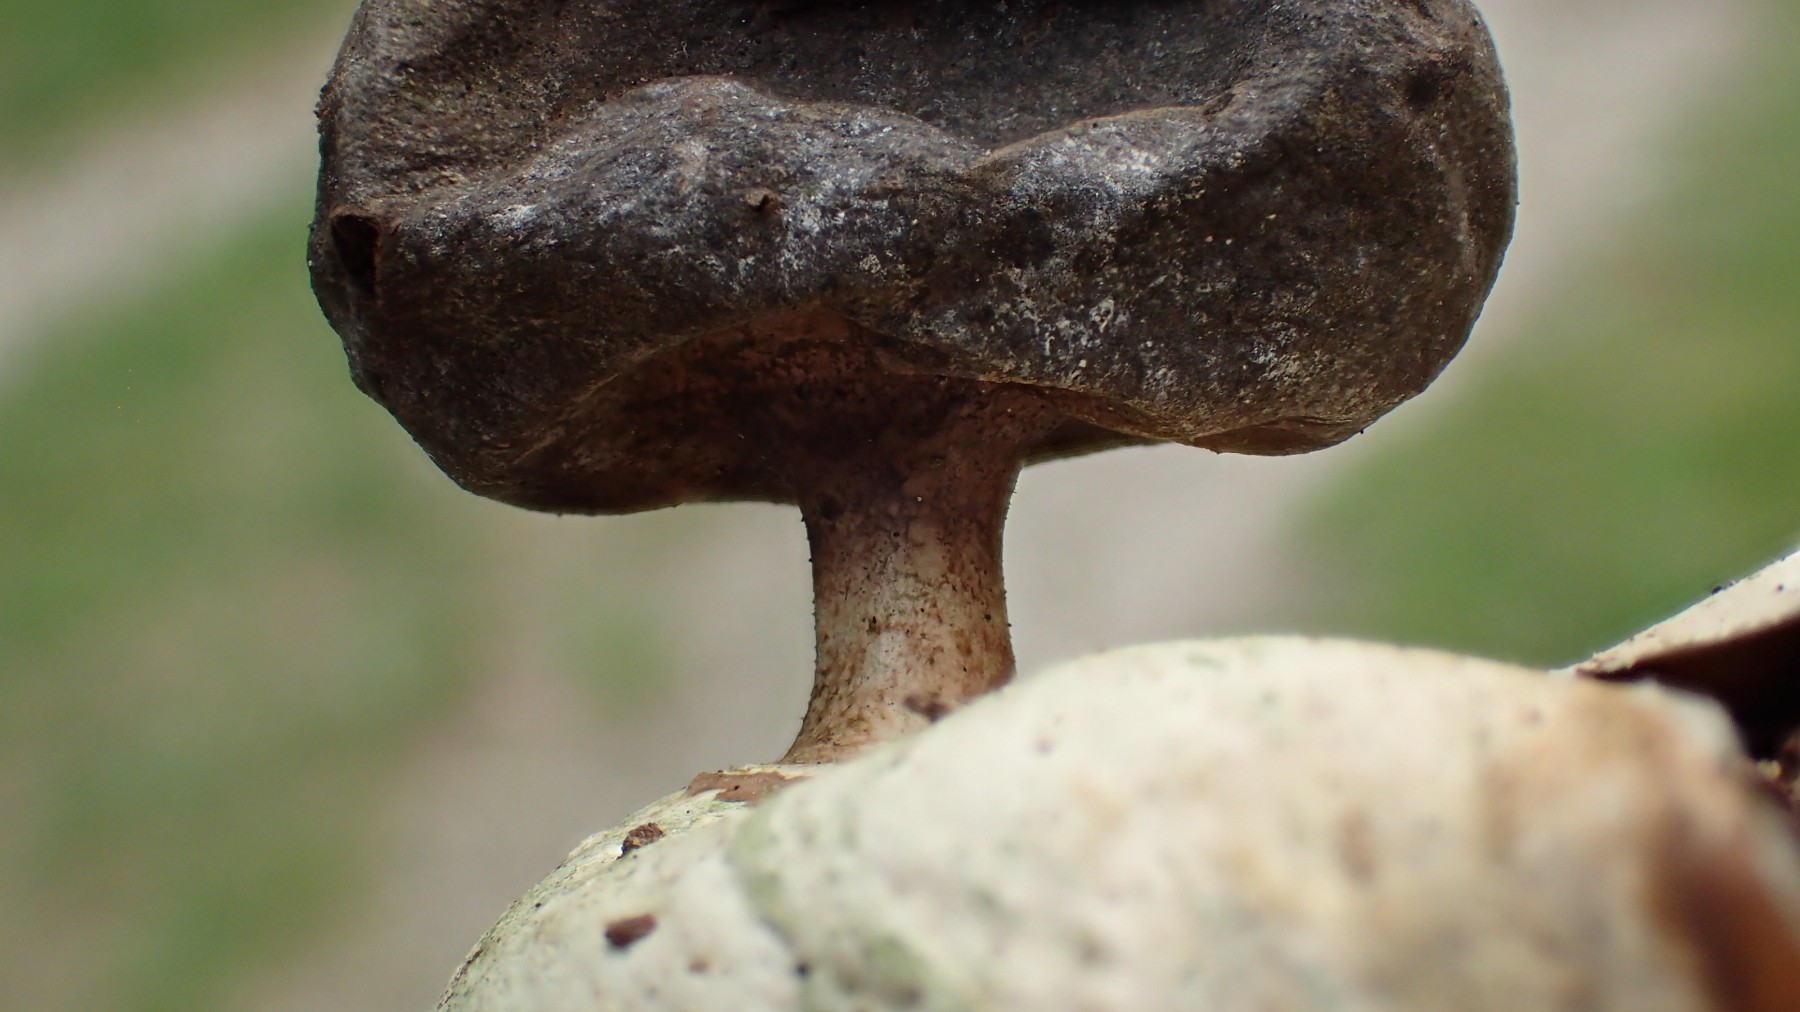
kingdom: Fungi
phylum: Basidiomycota
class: Agaricomycetes
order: Geastrales
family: Geastraceae
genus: Geastrum
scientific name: Geastrum pectinatum
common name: stilket stjernebold
